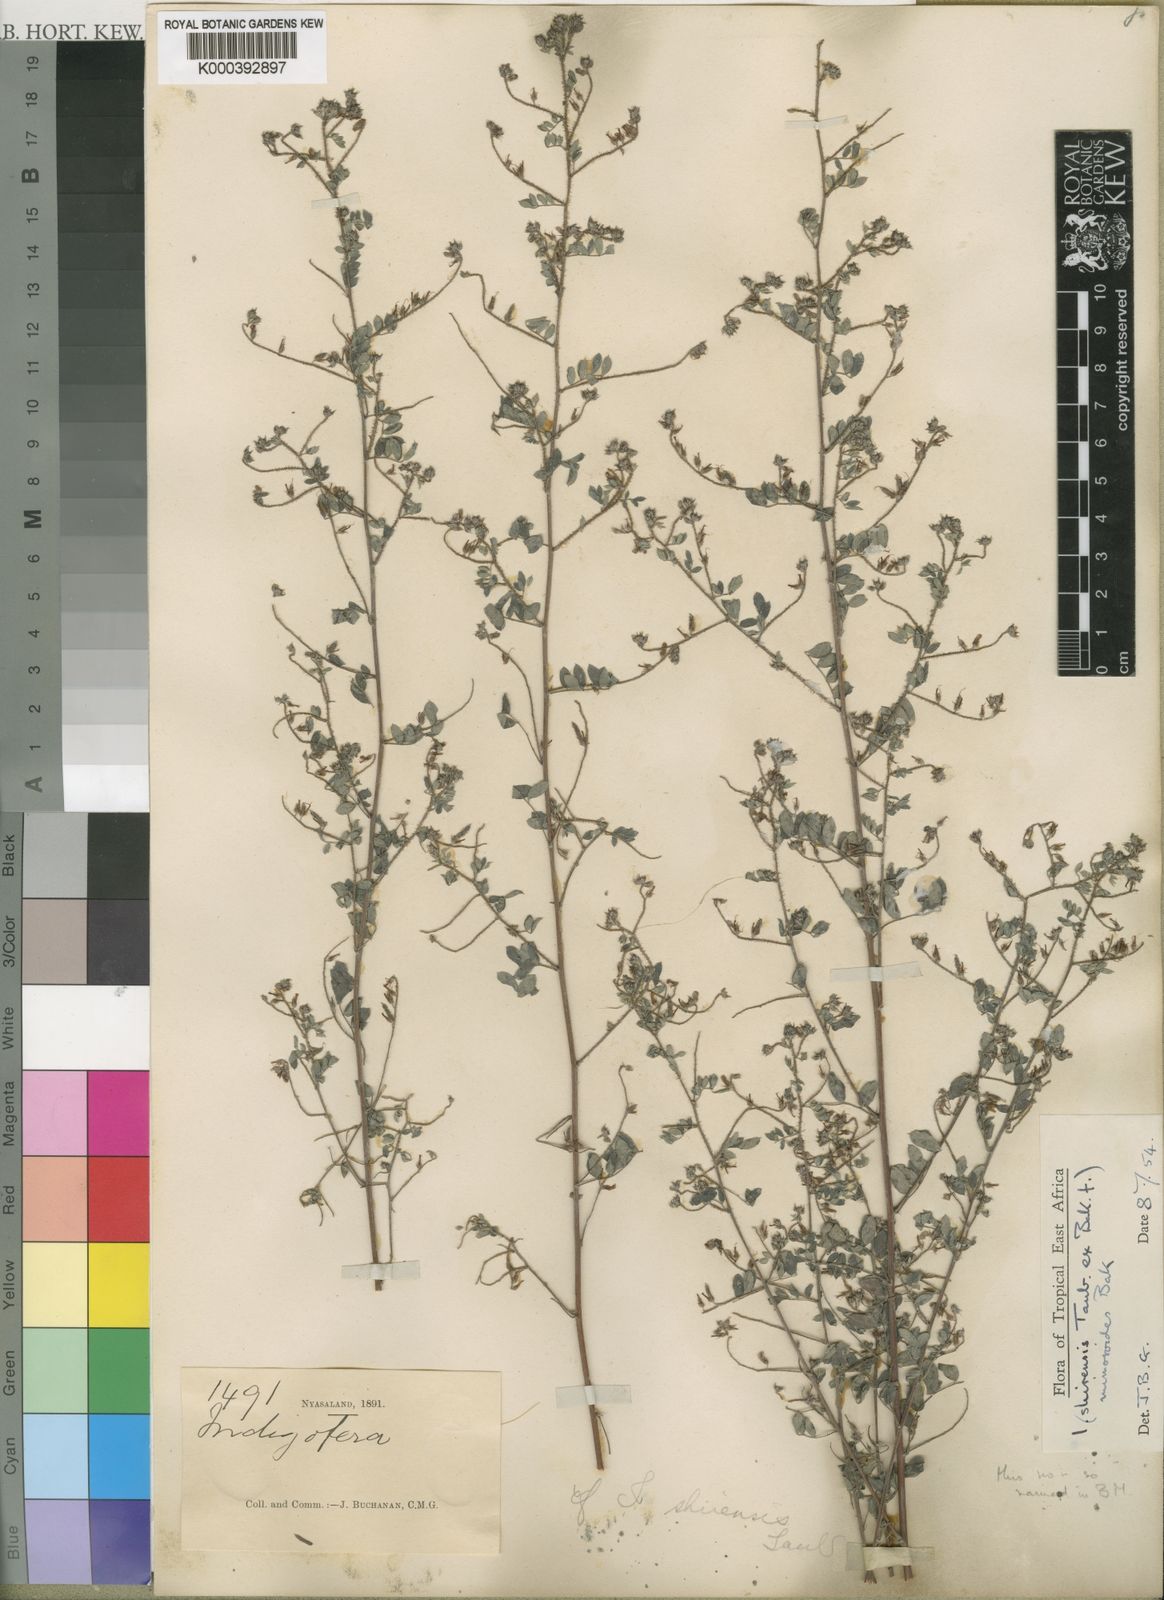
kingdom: Plantae
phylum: Tracheophyta
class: Magnoliopsida
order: Fabales
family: Fabaceae
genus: Indigofera
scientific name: Indigofera mimosoides
